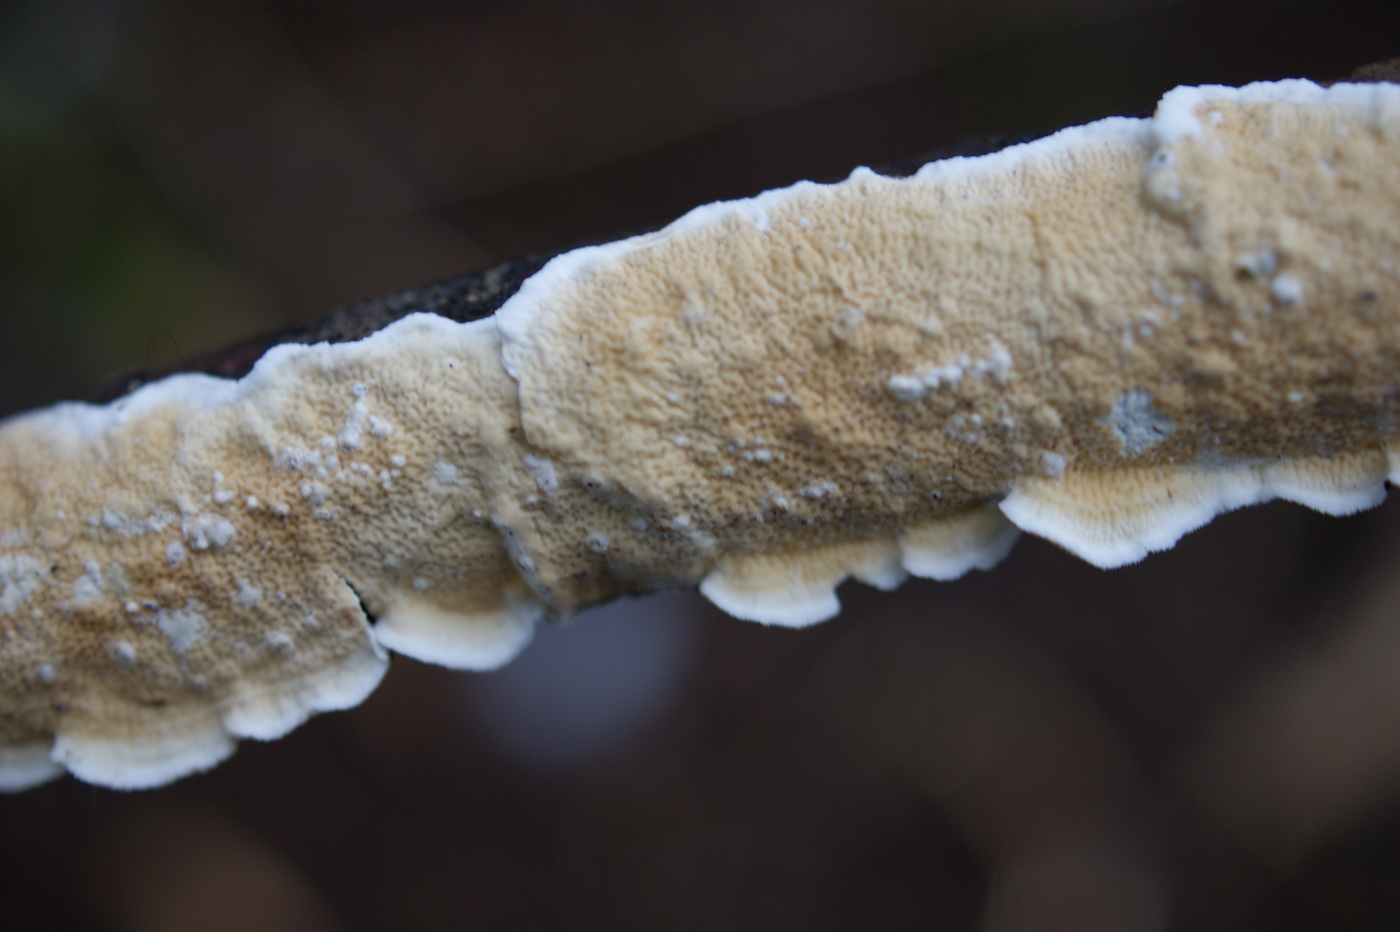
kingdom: Fungi
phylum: Basidiomycota
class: Agaricomycetes
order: Polyporales
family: Irpicaceae
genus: Byssomerulius
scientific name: Byssomerulius corium
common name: læder-åresvamp
